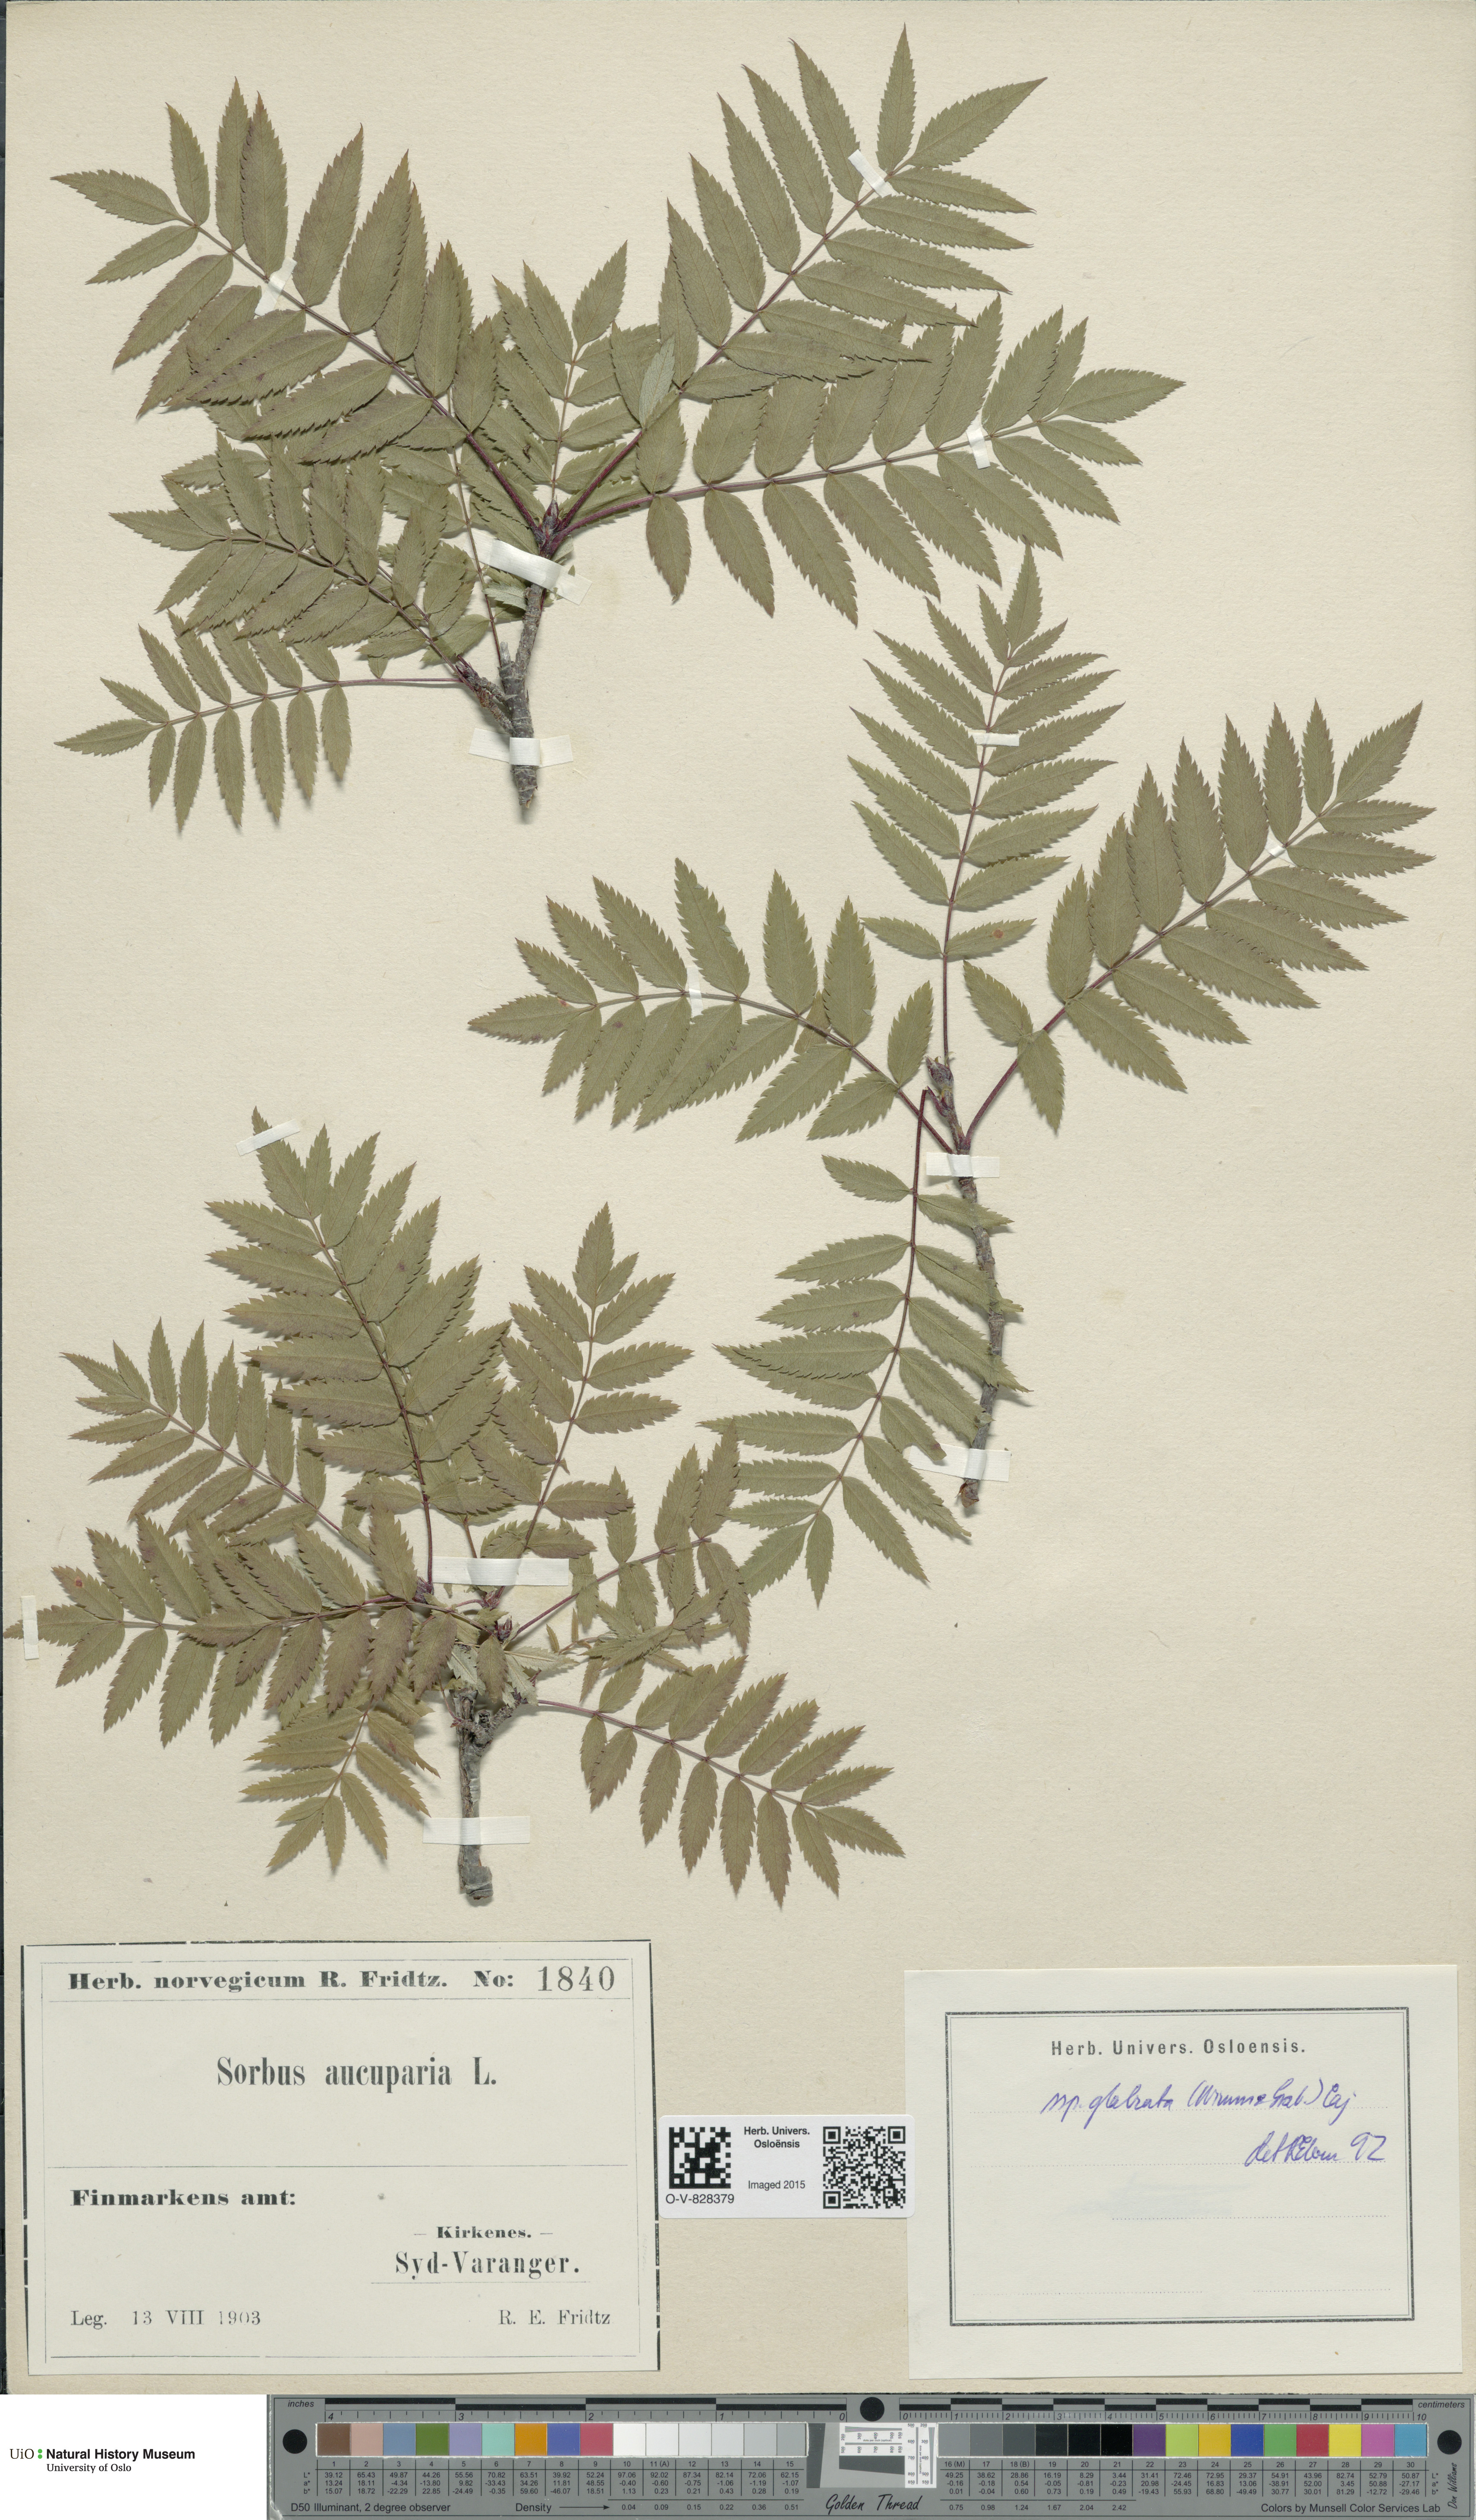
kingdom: Plantae
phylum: Tracheophyta
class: Magnoliopsida
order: Rosales
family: Rosaceae
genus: Sorbus
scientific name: Sorbus aucuparia
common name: Rowan
